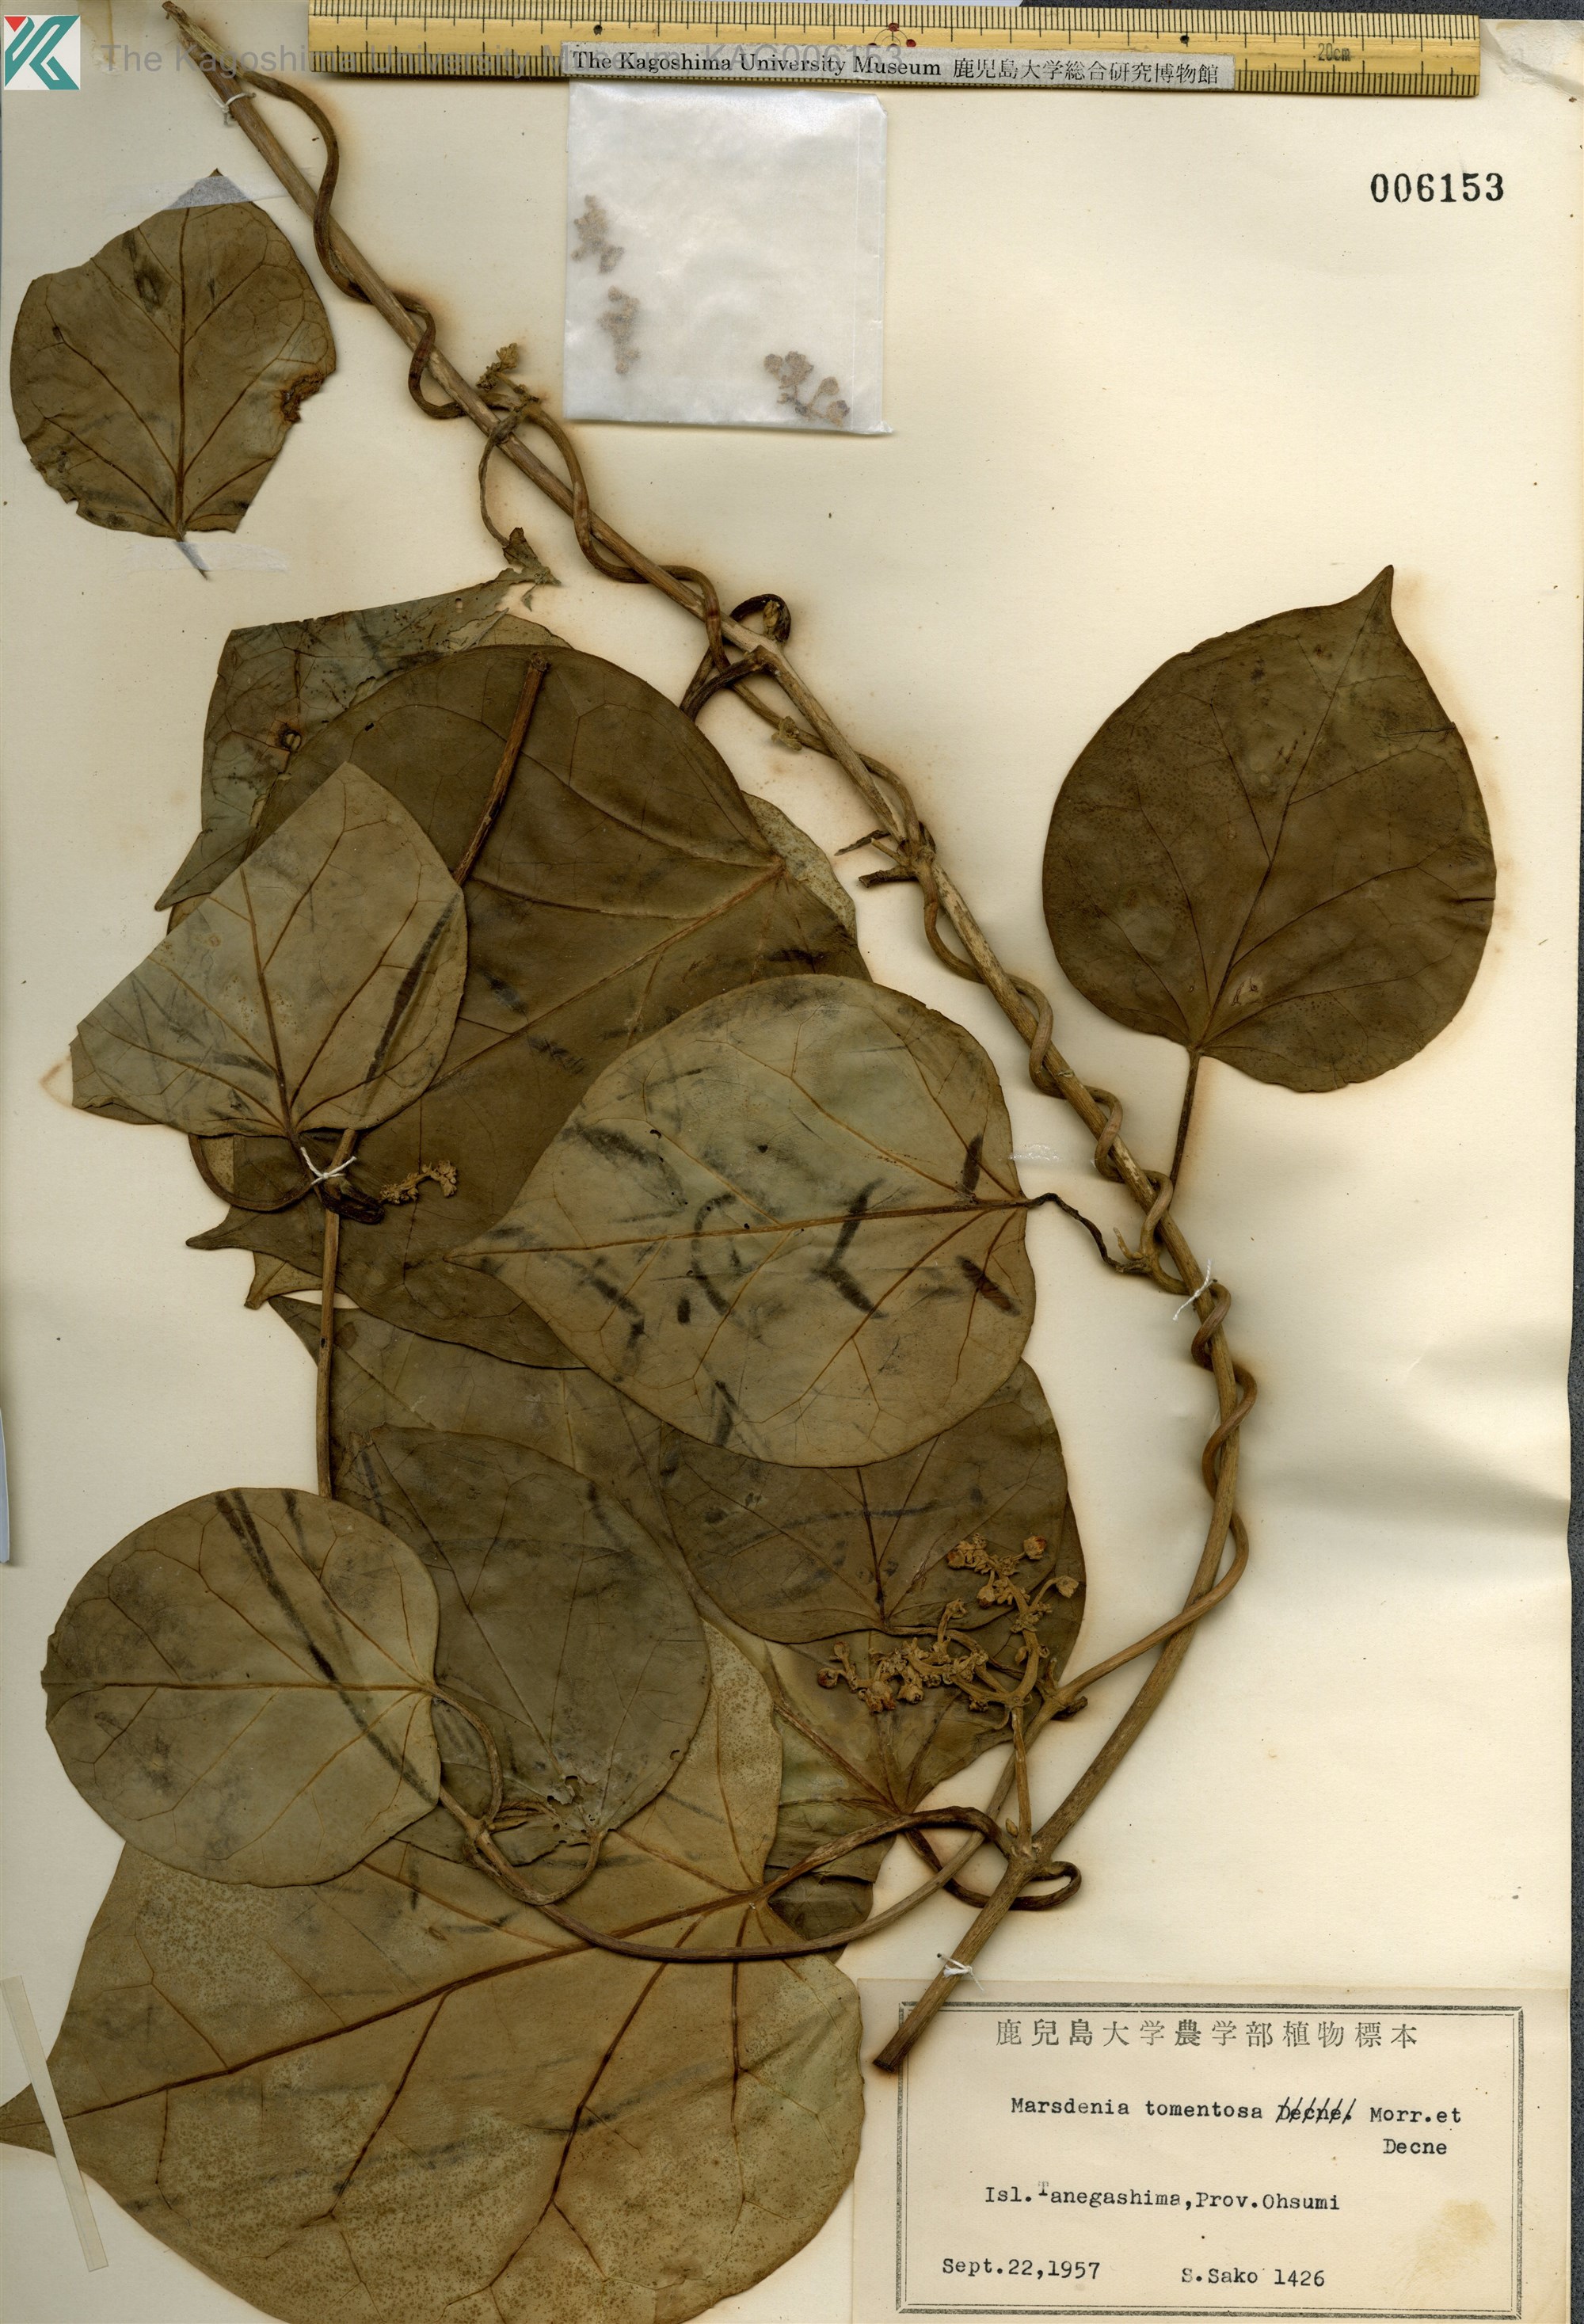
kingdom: Plantae
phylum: Tracheophyta
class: Magnoliopsida
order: Gentianales
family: Apocynaceae
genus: Sinomarsdenia
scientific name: Sinomarsdenia tomentosa
